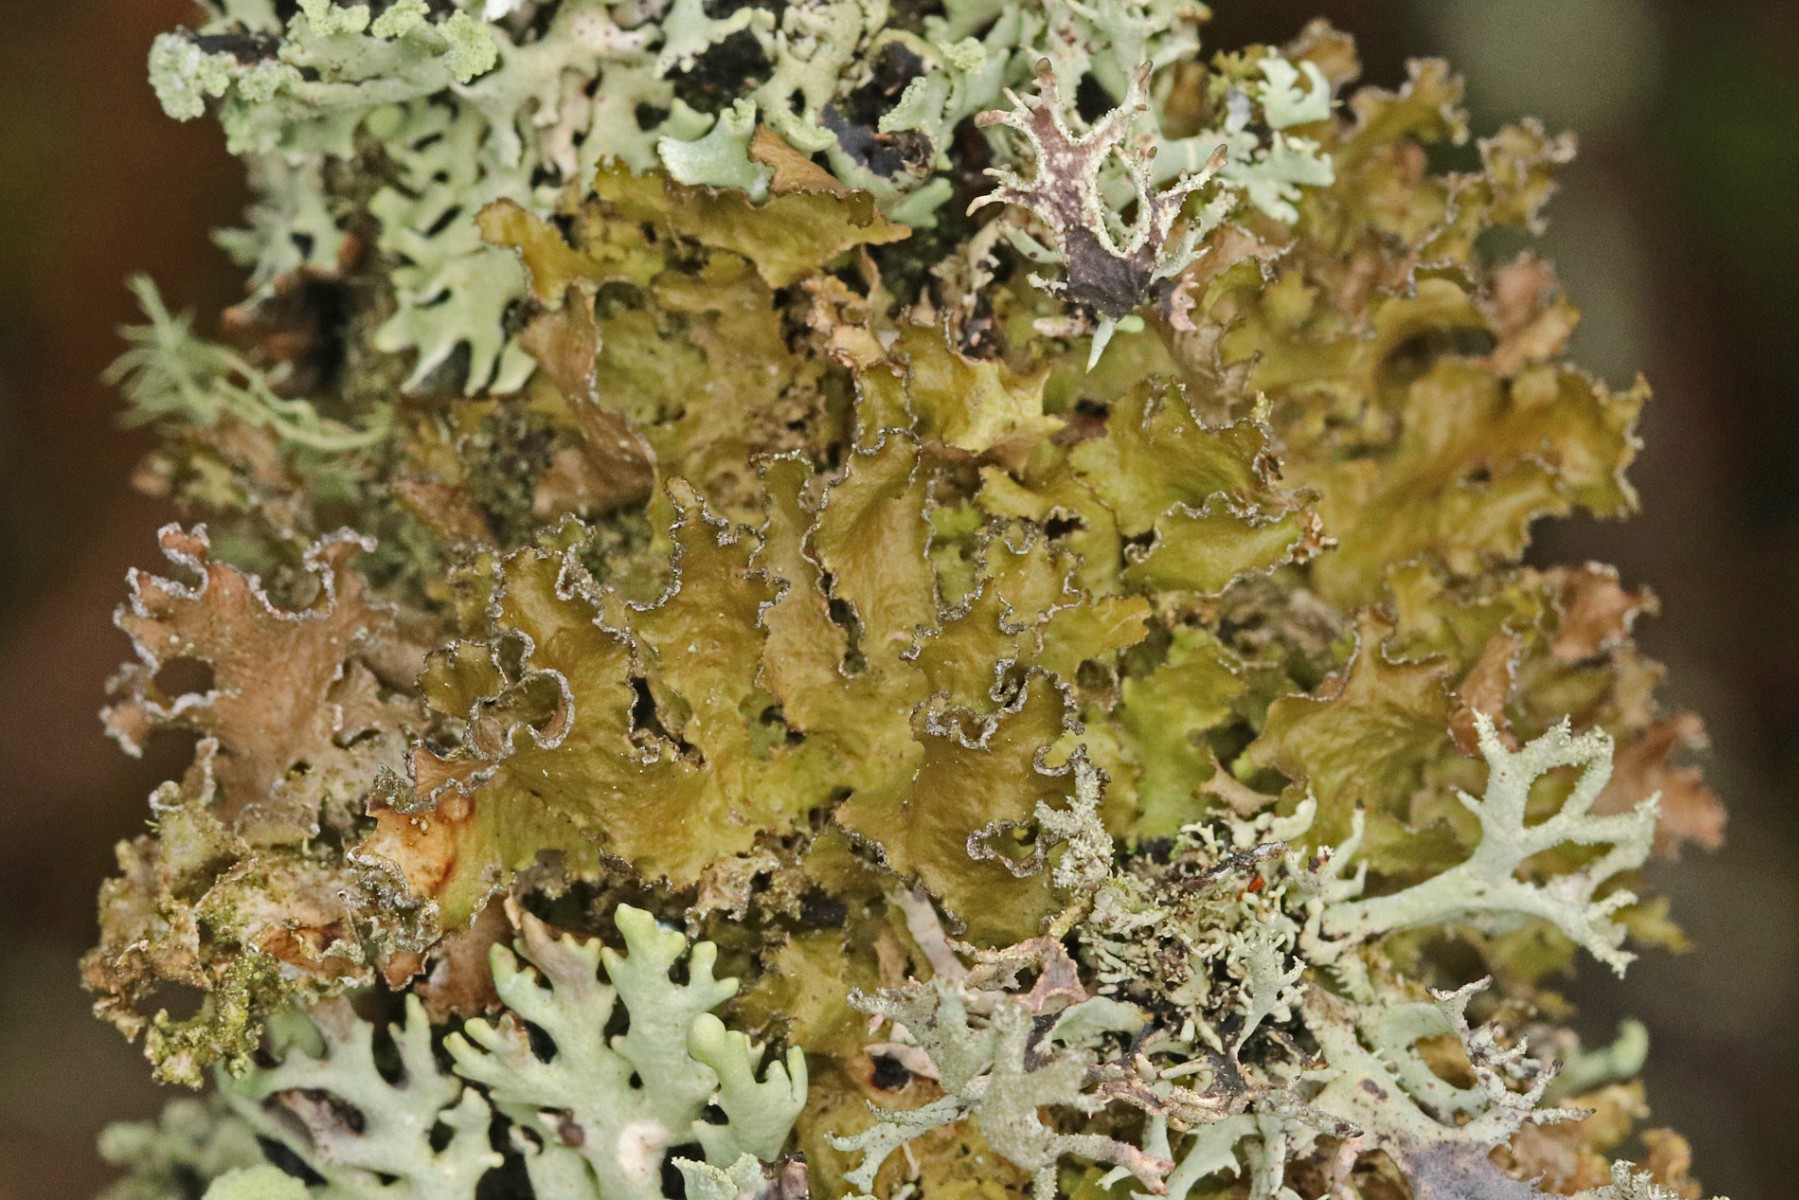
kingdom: Fungi
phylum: Ascomycota
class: Lecanoromycetes
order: Lecanorales
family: Parmeliaceae
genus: Nephromopsis
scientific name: Nephromopsis chlorophylla
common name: olivenbrun kruslav
